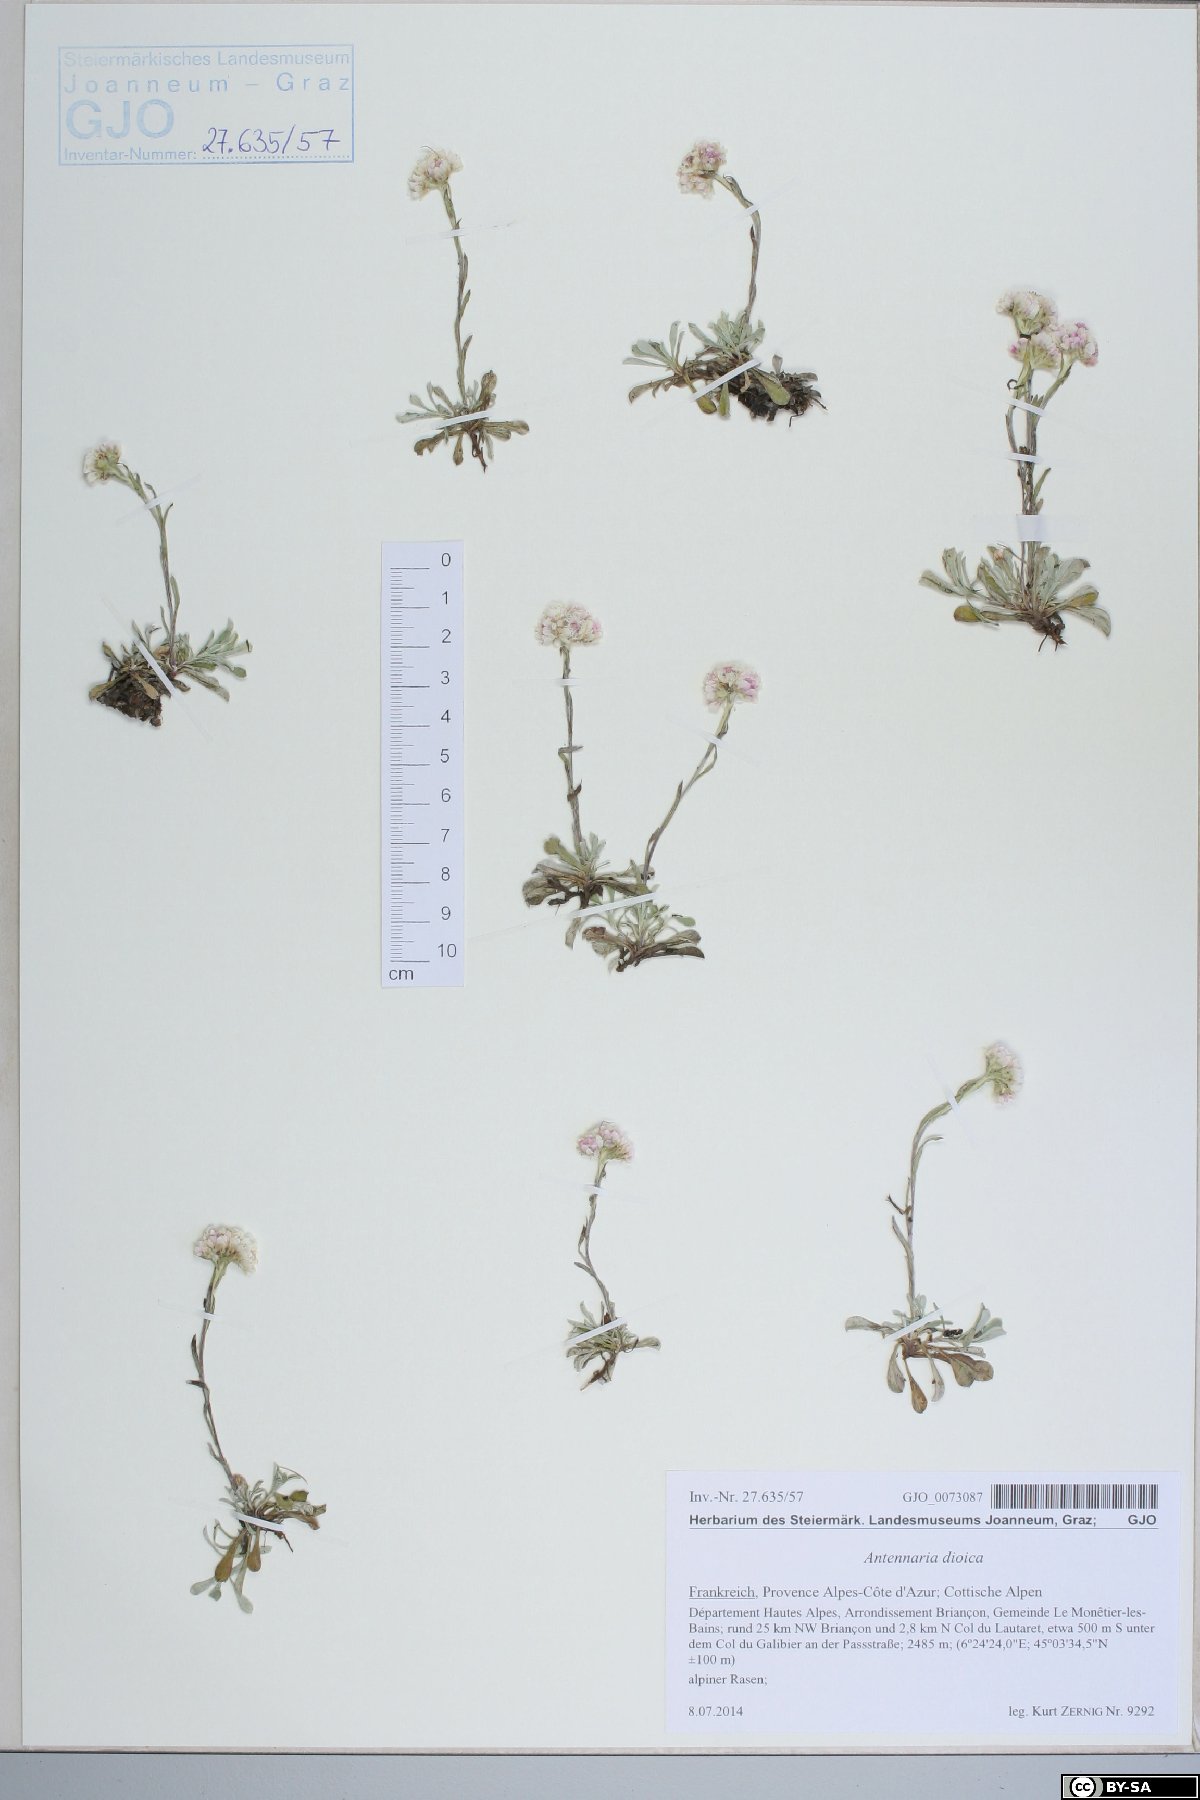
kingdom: Plantae
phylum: Tracheophyta
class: Magnoliopsida
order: Asterales
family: Asteraceae
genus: Antennaria
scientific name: Antennaria dioica
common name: Mountain everlasting
